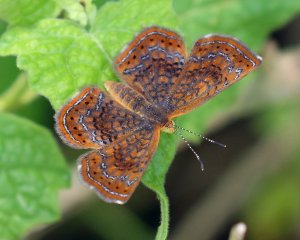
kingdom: Animalia
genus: Calephelis
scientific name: Calephelis perditalis
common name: Rounded Metalmark
